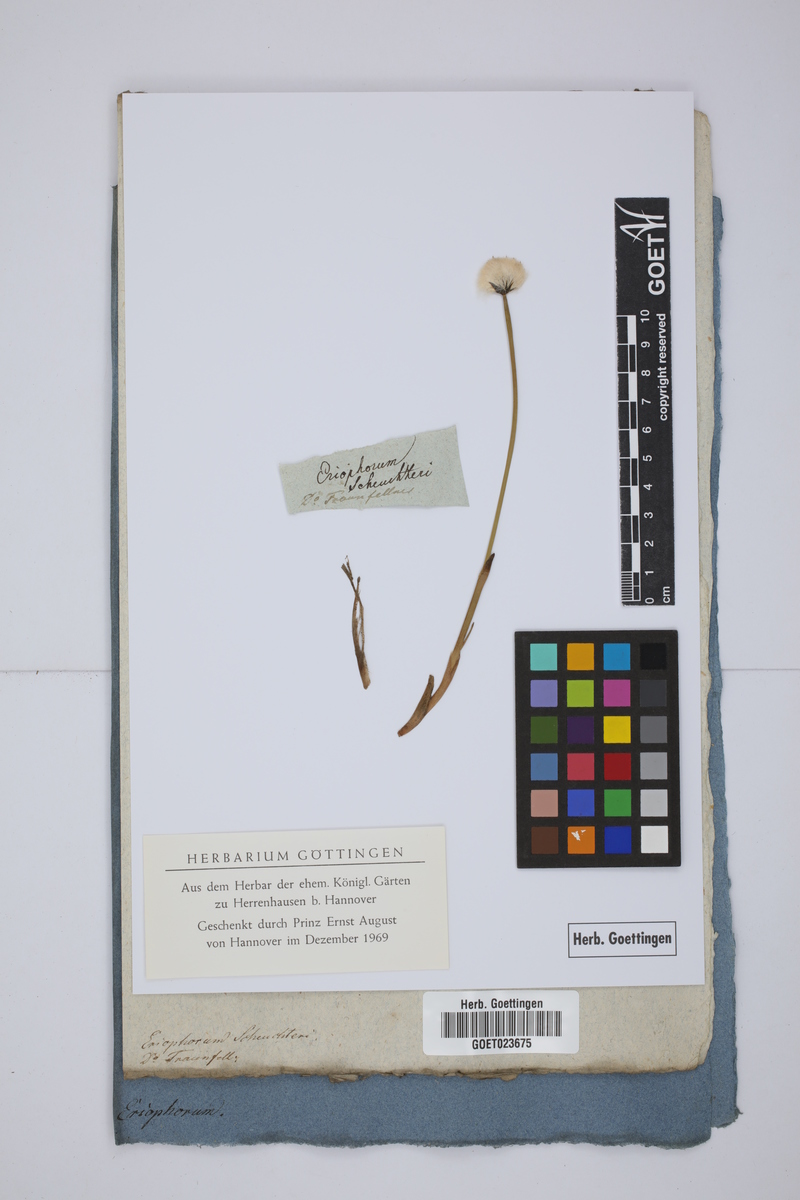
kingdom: Plantae
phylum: Tracheophyta
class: Liliopsida
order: Poales
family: Cyperaceae
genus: Eriophorum
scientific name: Eriophorum scheuchzeri
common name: Scheuchzer's cottongrass
